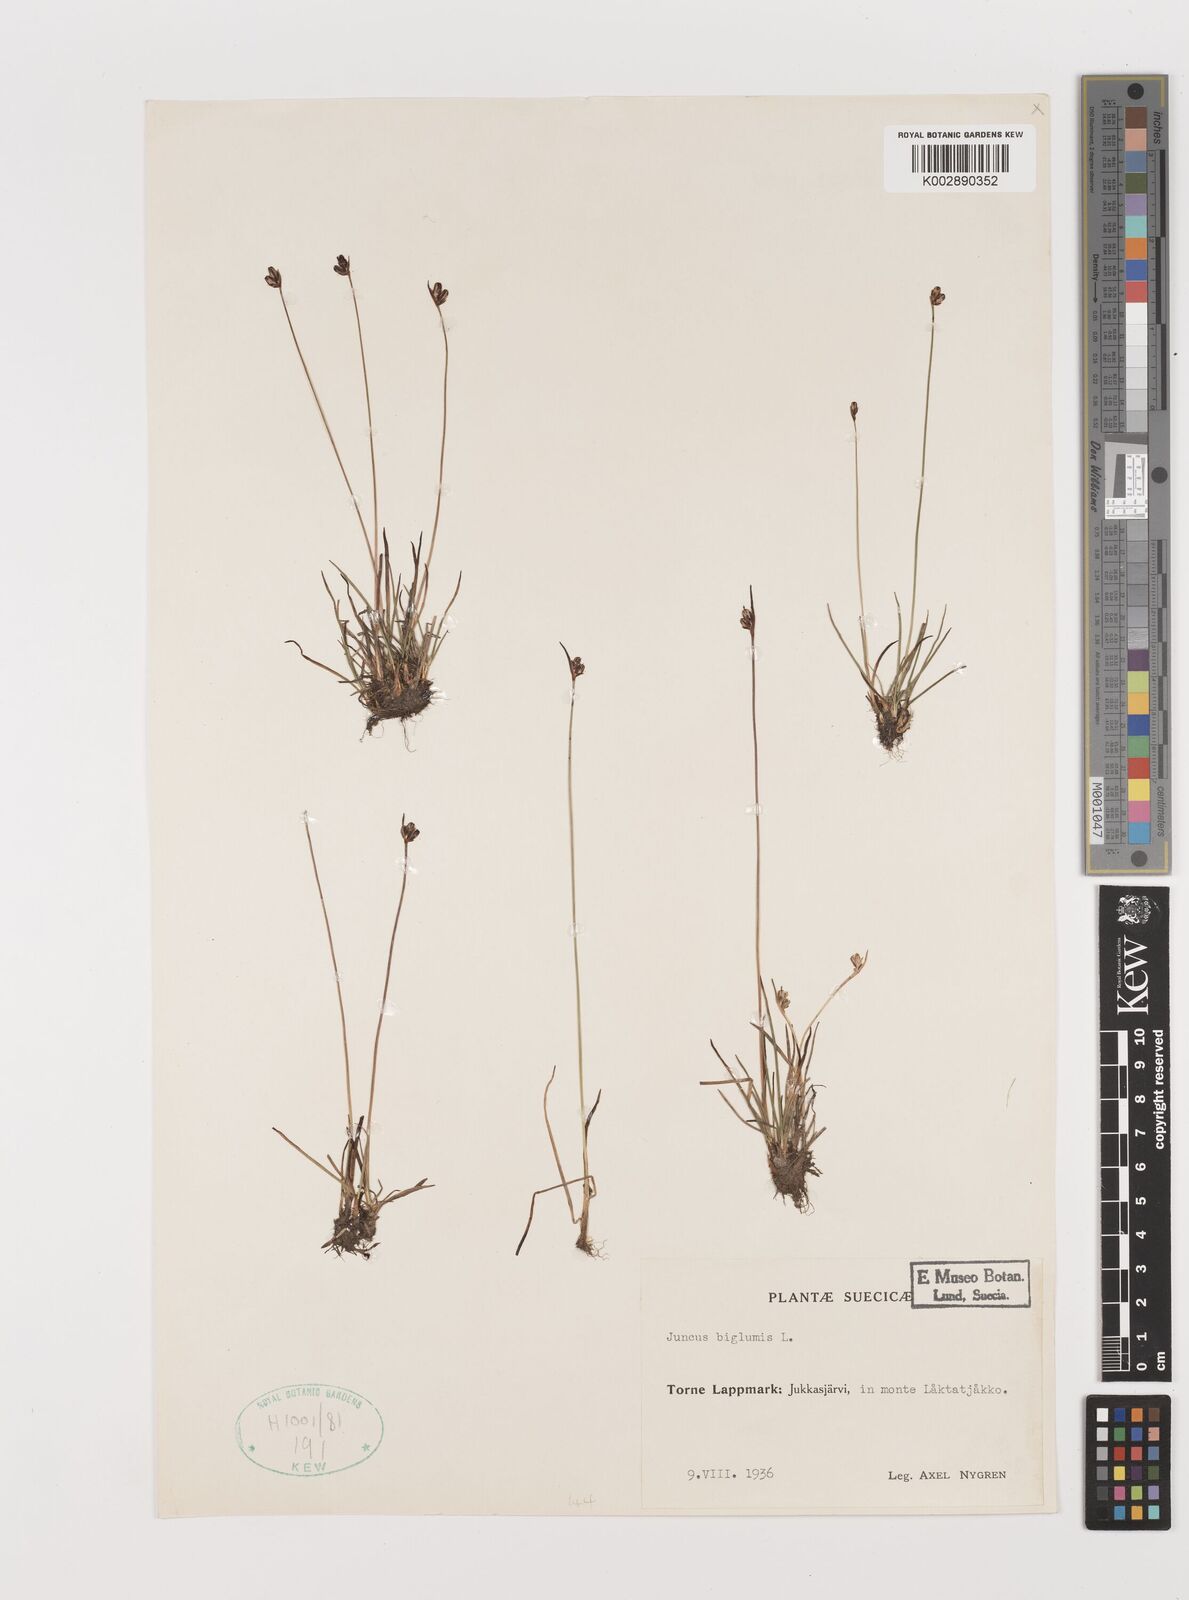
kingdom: Plantae
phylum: Tracheophyta
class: Liliopsida
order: Poales
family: Juncaceae
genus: Juncus
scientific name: Juncus biglumis
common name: Two-flowered rush
